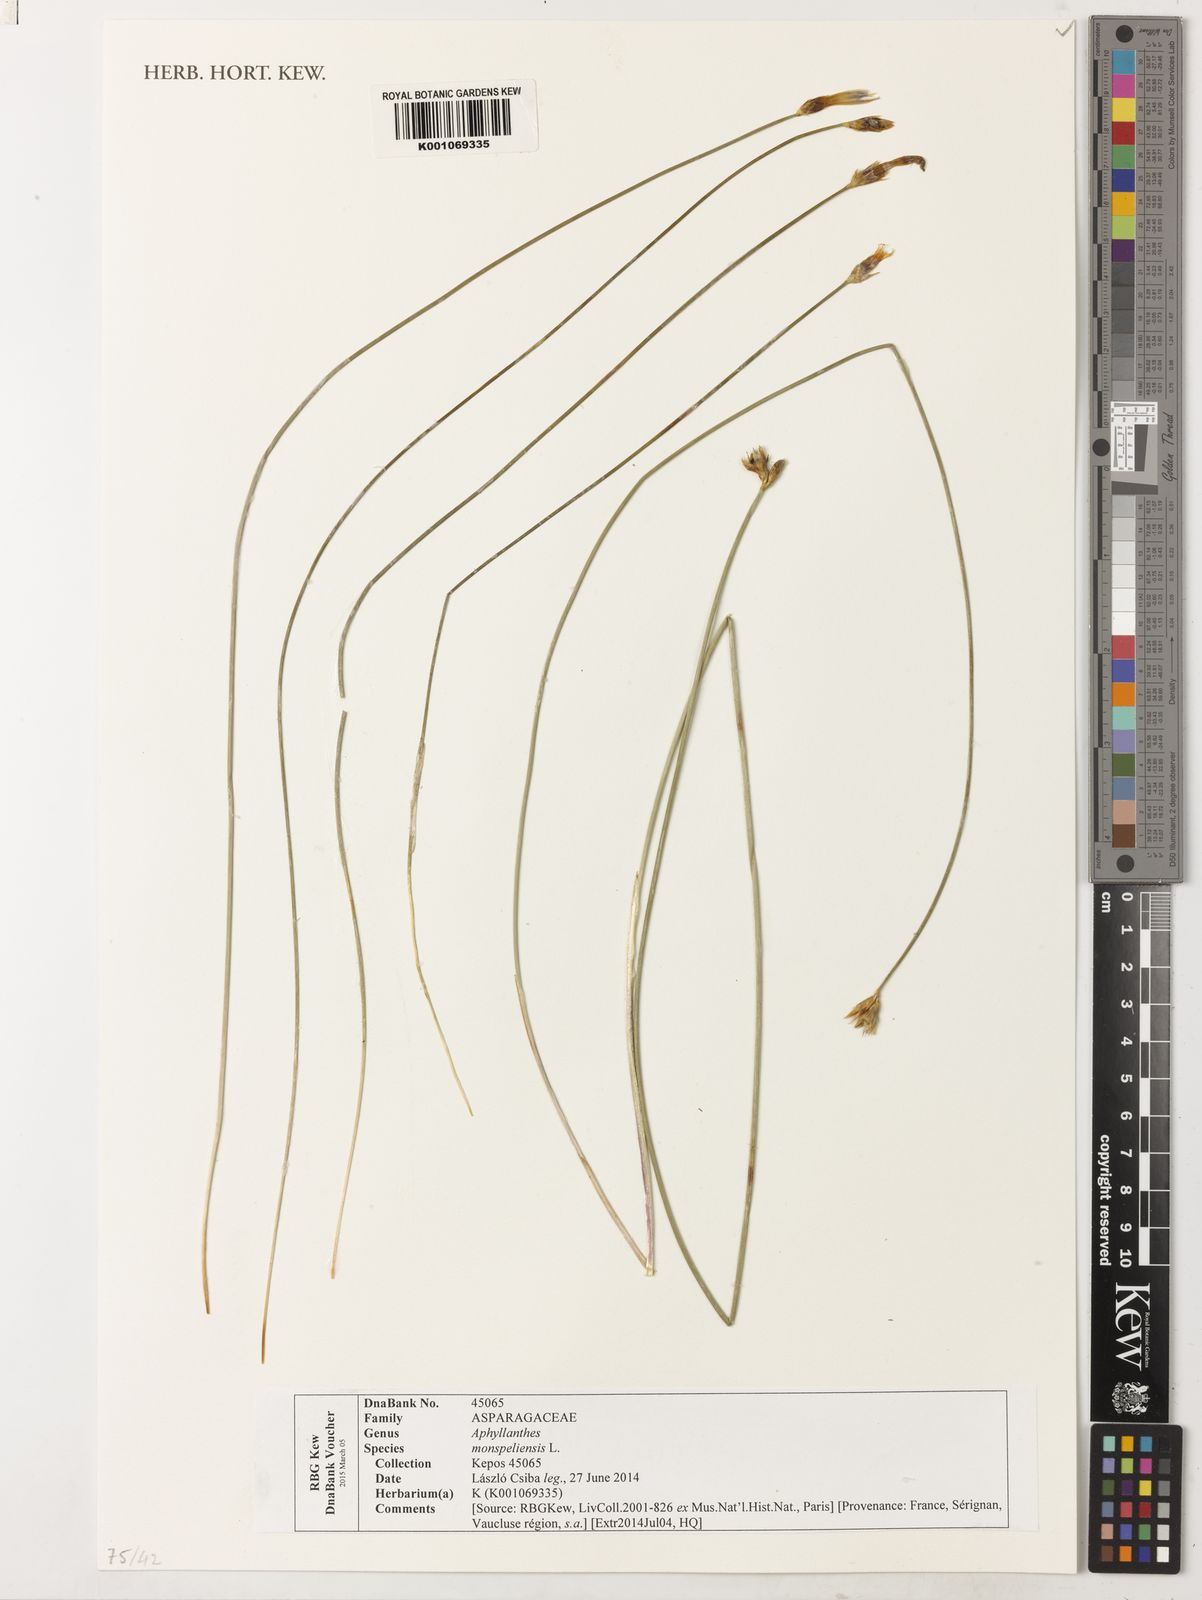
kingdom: Plantae
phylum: Tracheophyta
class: Liliopsida
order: Asparagales
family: Asparagaceae
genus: Aphyllanthes
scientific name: Aphyllanthes monspeliensis
